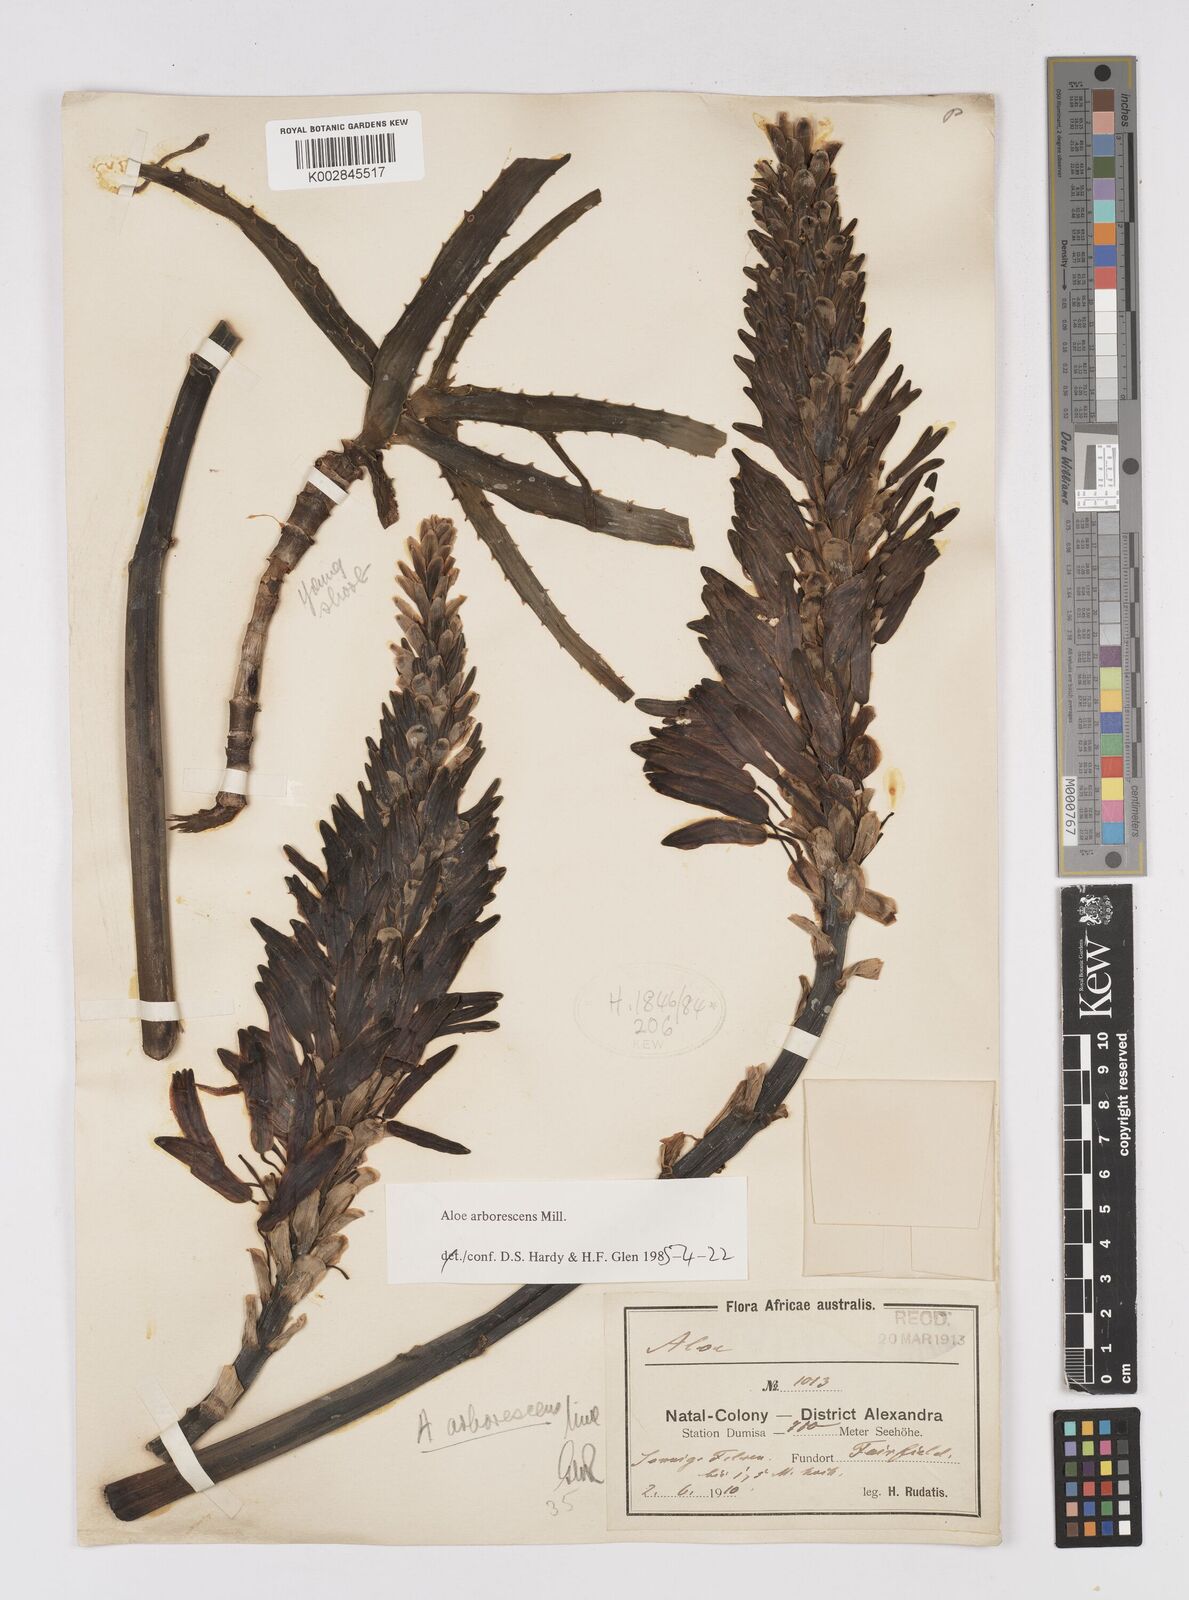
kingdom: Plantae
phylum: Tracheophyta
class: Liliopsida
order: Asparagales
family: Asphodelaceae
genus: Aloe
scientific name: Aloe arborescens
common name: Candelabra aloe
